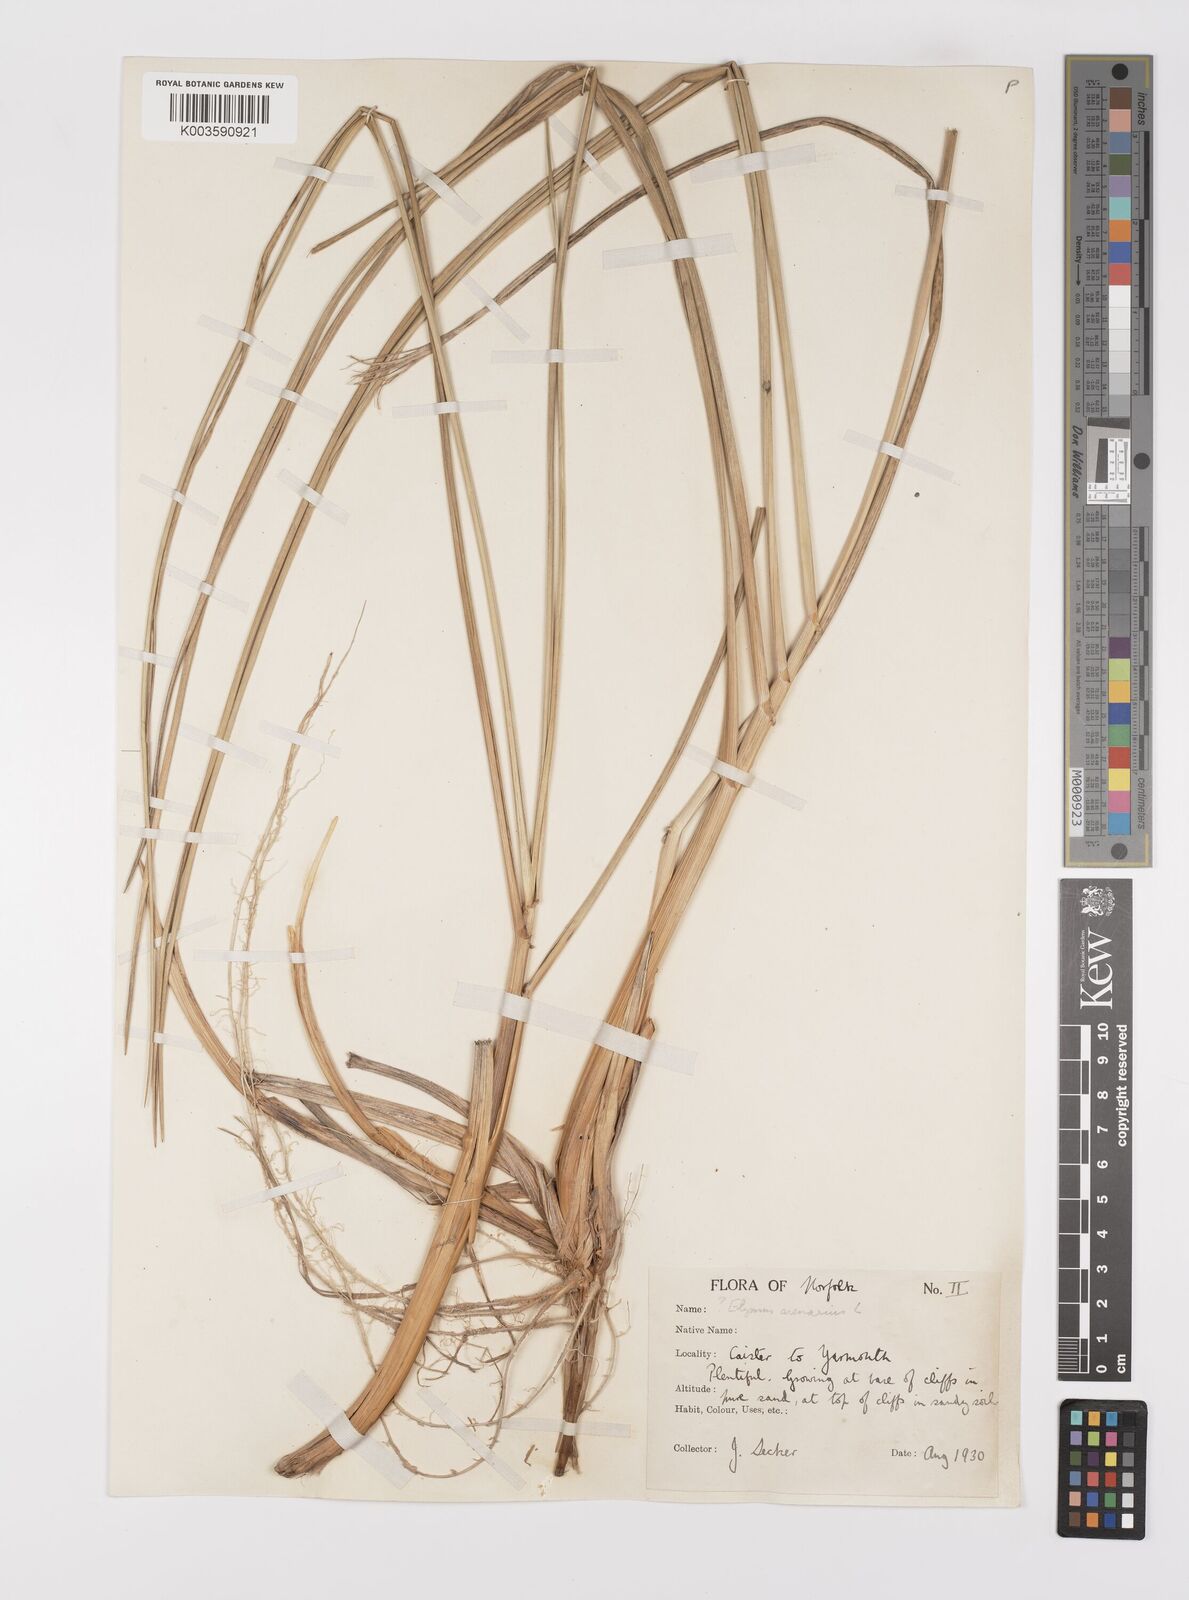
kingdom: Plantae
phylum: Tracheophyta
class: Liliopsida
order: Poales
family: Poaceae
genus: Leymus
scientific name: Leymus arenarius
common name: Lyme-grass
